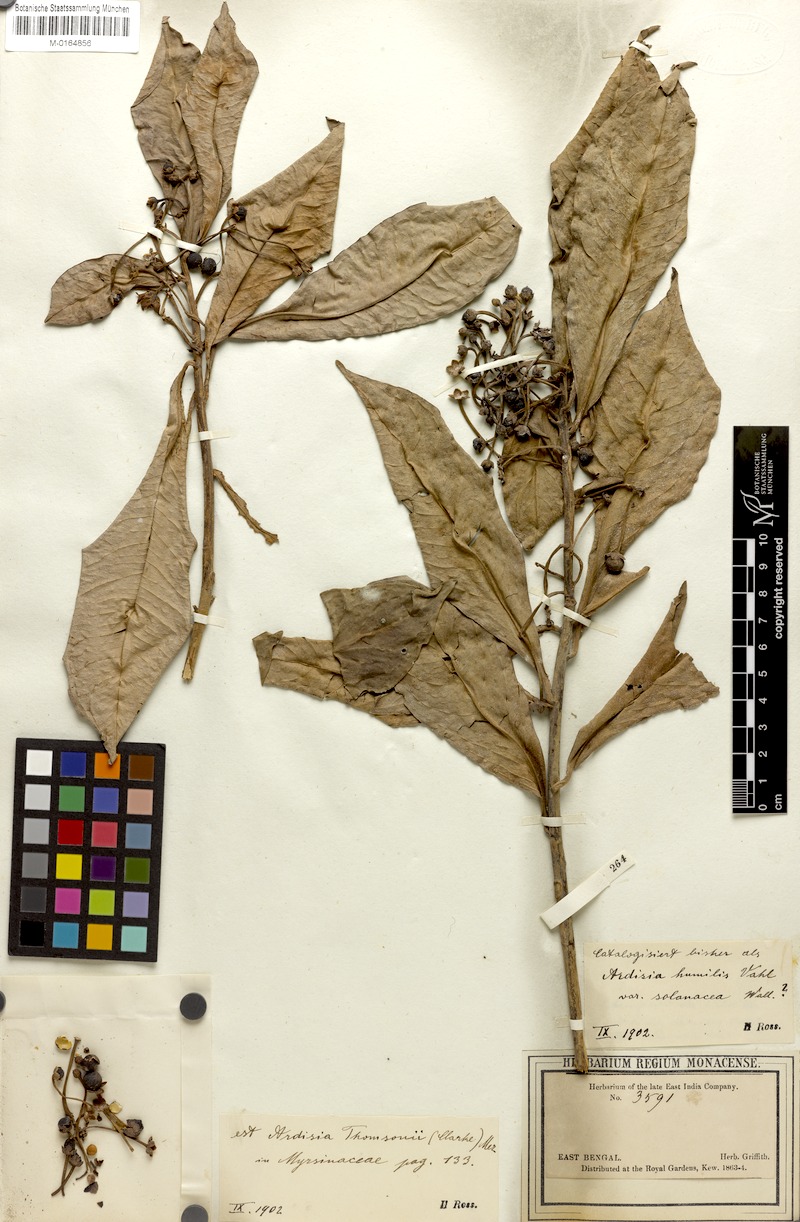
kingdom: Plantae
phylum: Tracheophyta
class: Magnoliopsida
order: Ericales
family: Primulaceae
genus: Ardisia
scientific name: Ardisia humilis
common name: Low shoebutton
